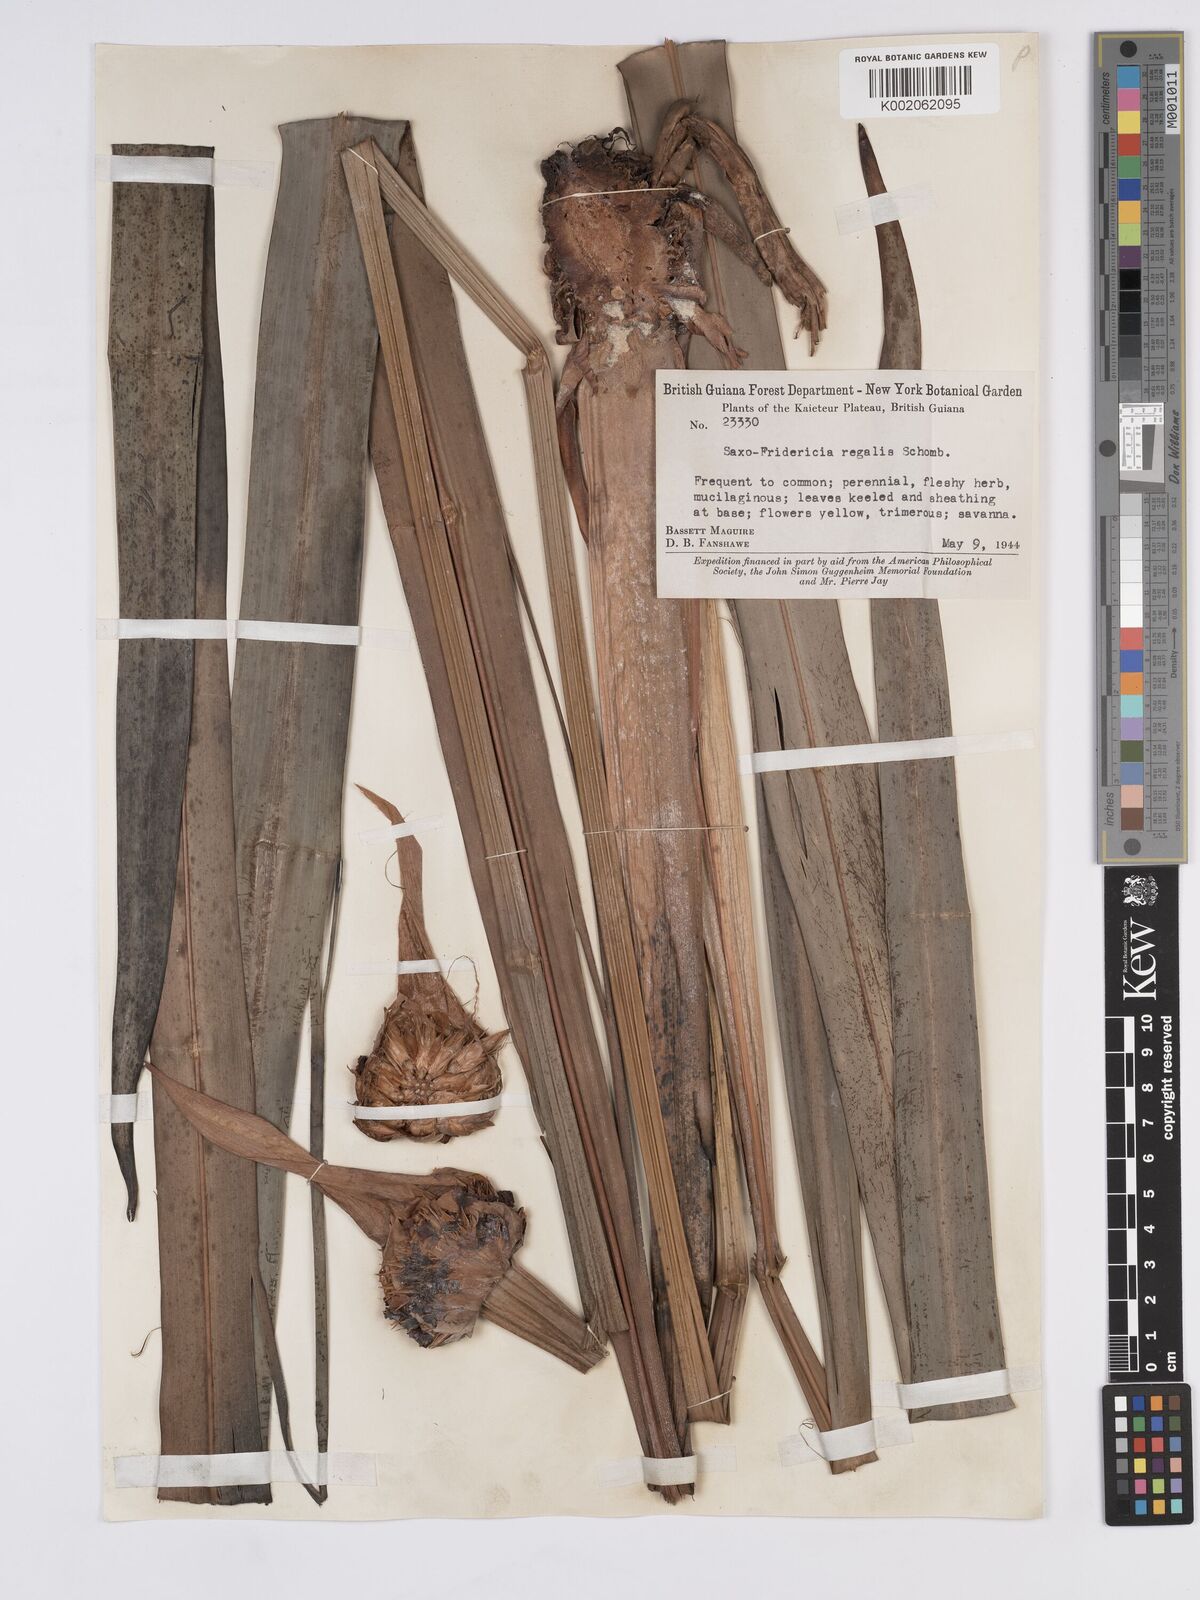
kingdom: Plantae
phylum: Tracheophyta
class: Liliopsida
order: Poales
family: Rapateaceae
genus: Saxofridericia
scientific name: Saxofridericia regalis
